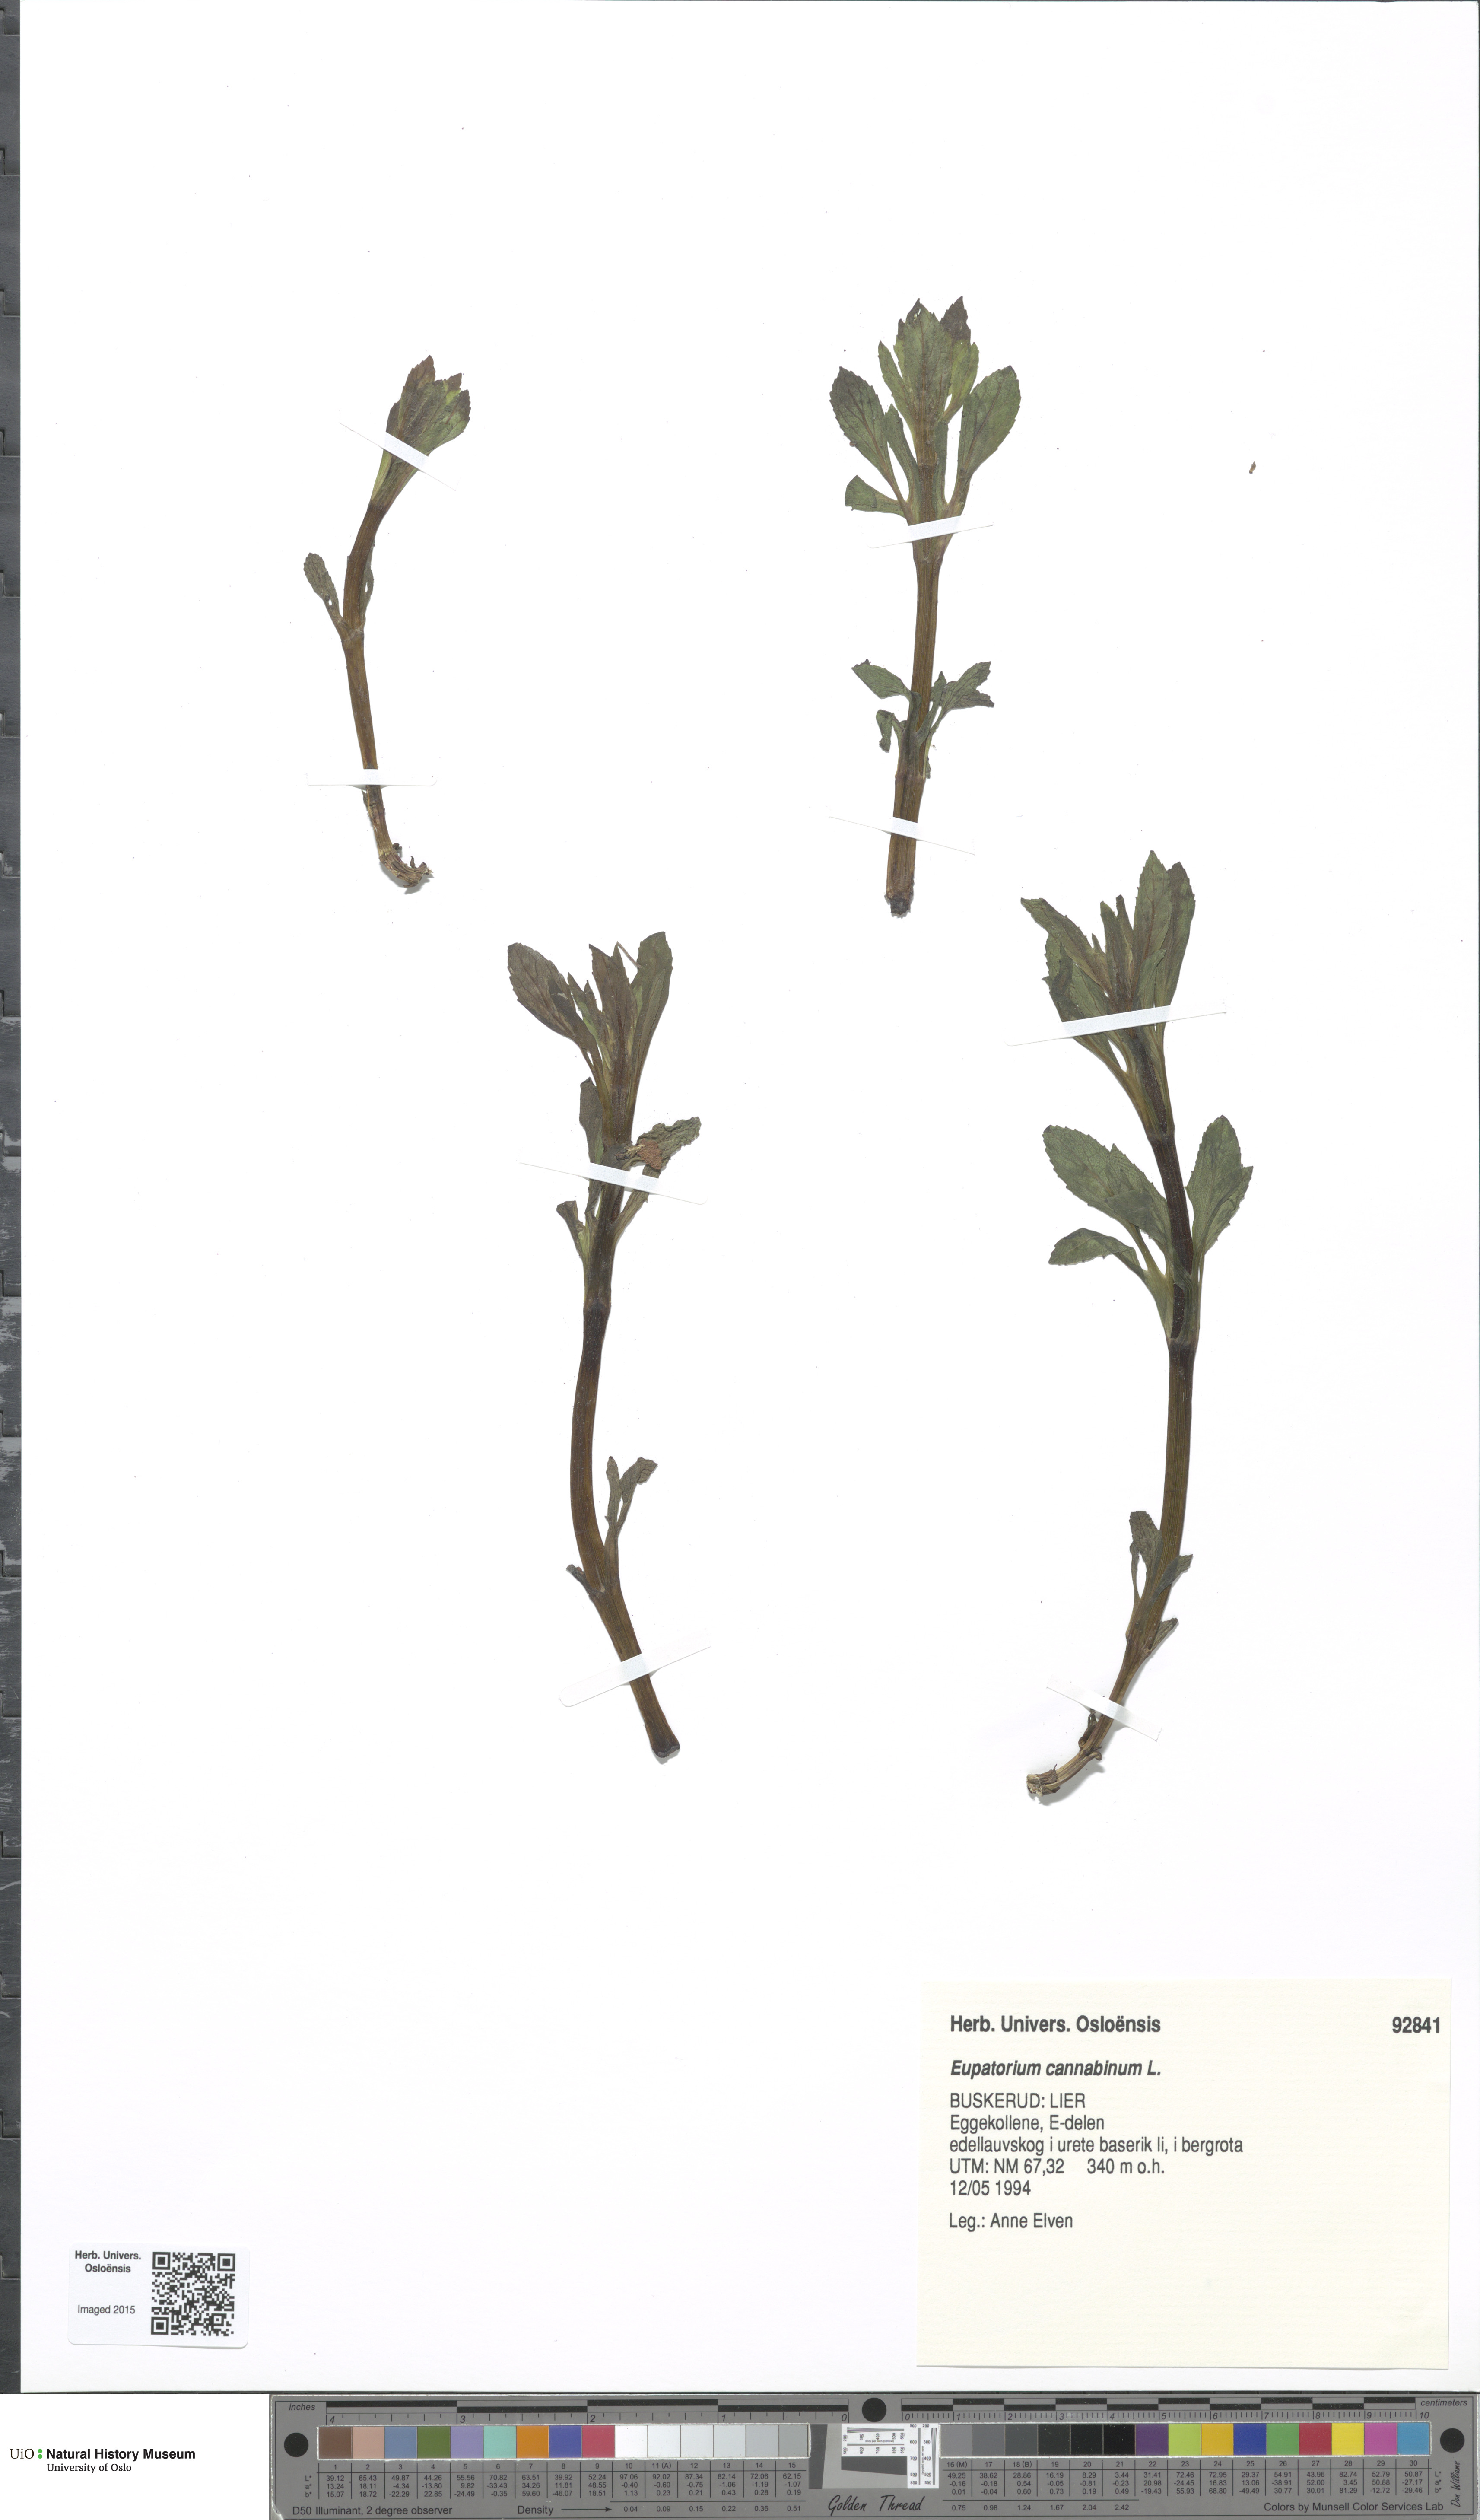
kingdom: Plantae
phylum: Tracheophyta
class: Magnoliopsida
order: Asterales
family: Asteraceae
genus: Eupatorium
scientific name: Eupatorium cannabinum
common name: Hemp-agrimony
